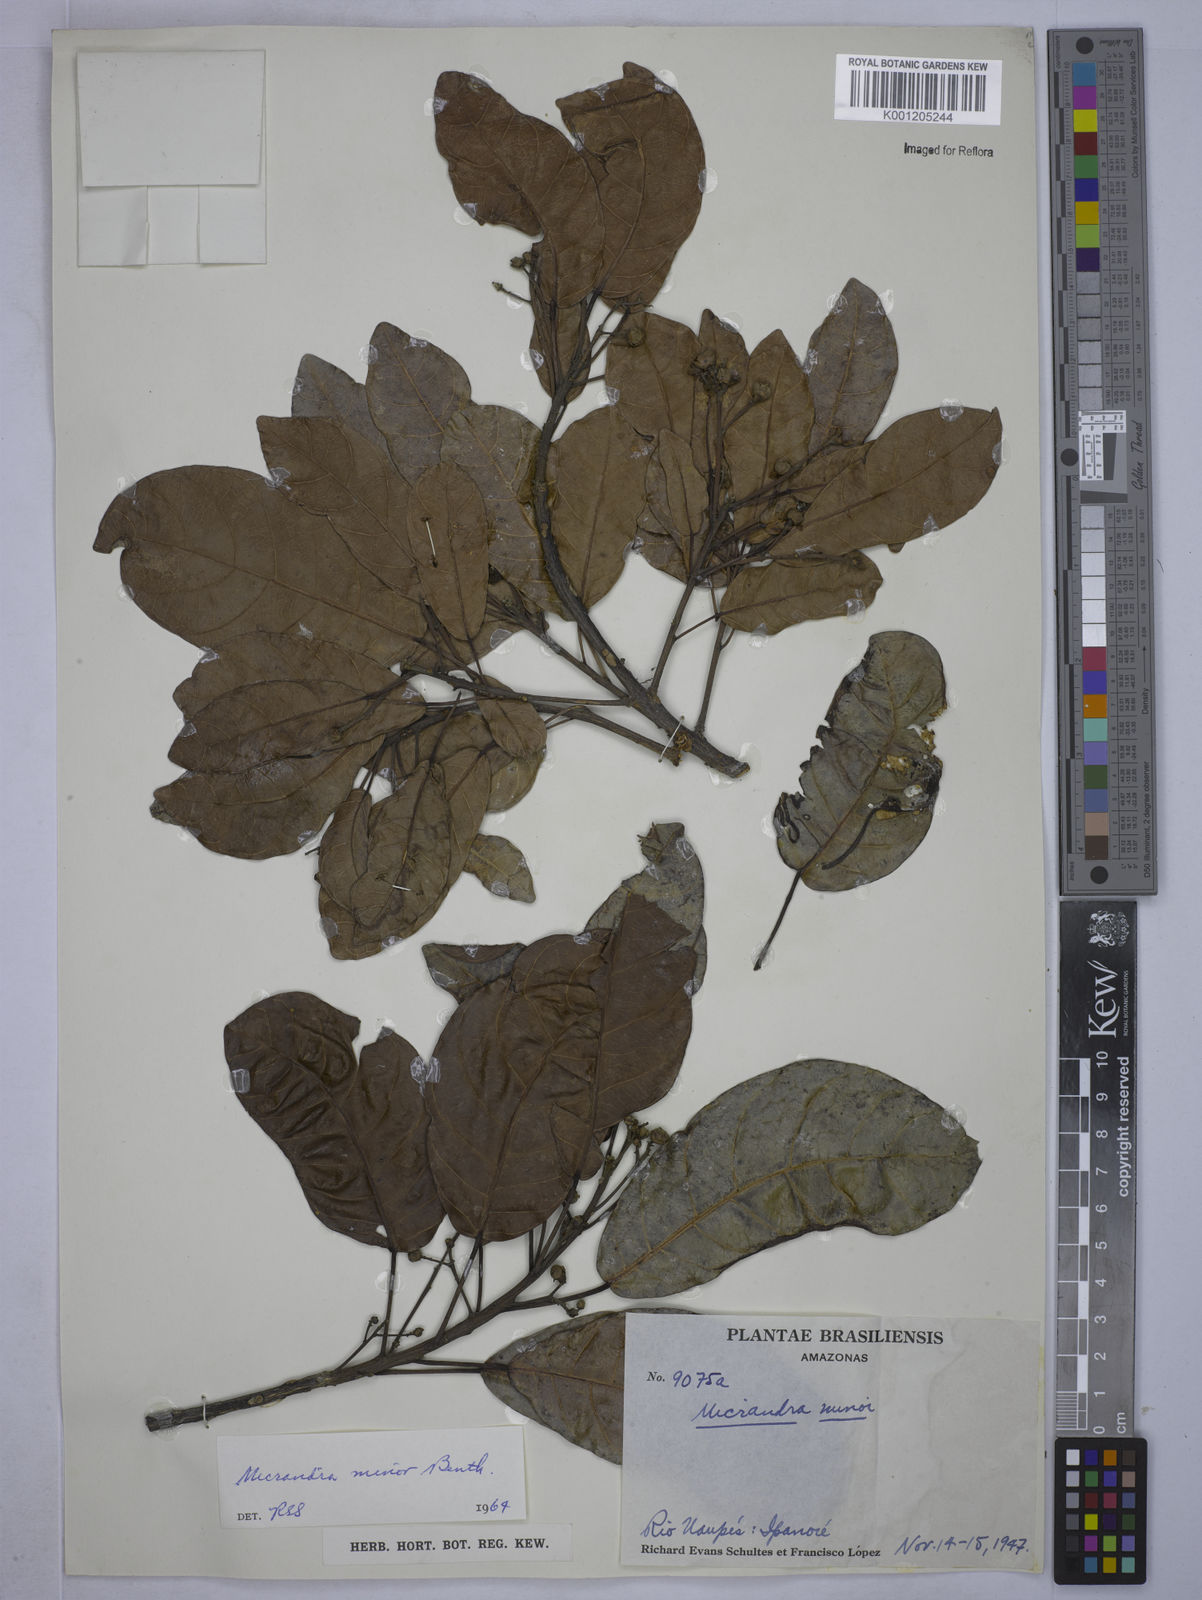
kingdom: Plantae
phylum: Tracheophyta
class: Magnoliopsida
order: Malpighiales
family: Euphorbiaceae
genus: Micrandra
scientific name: Micrandra minor
